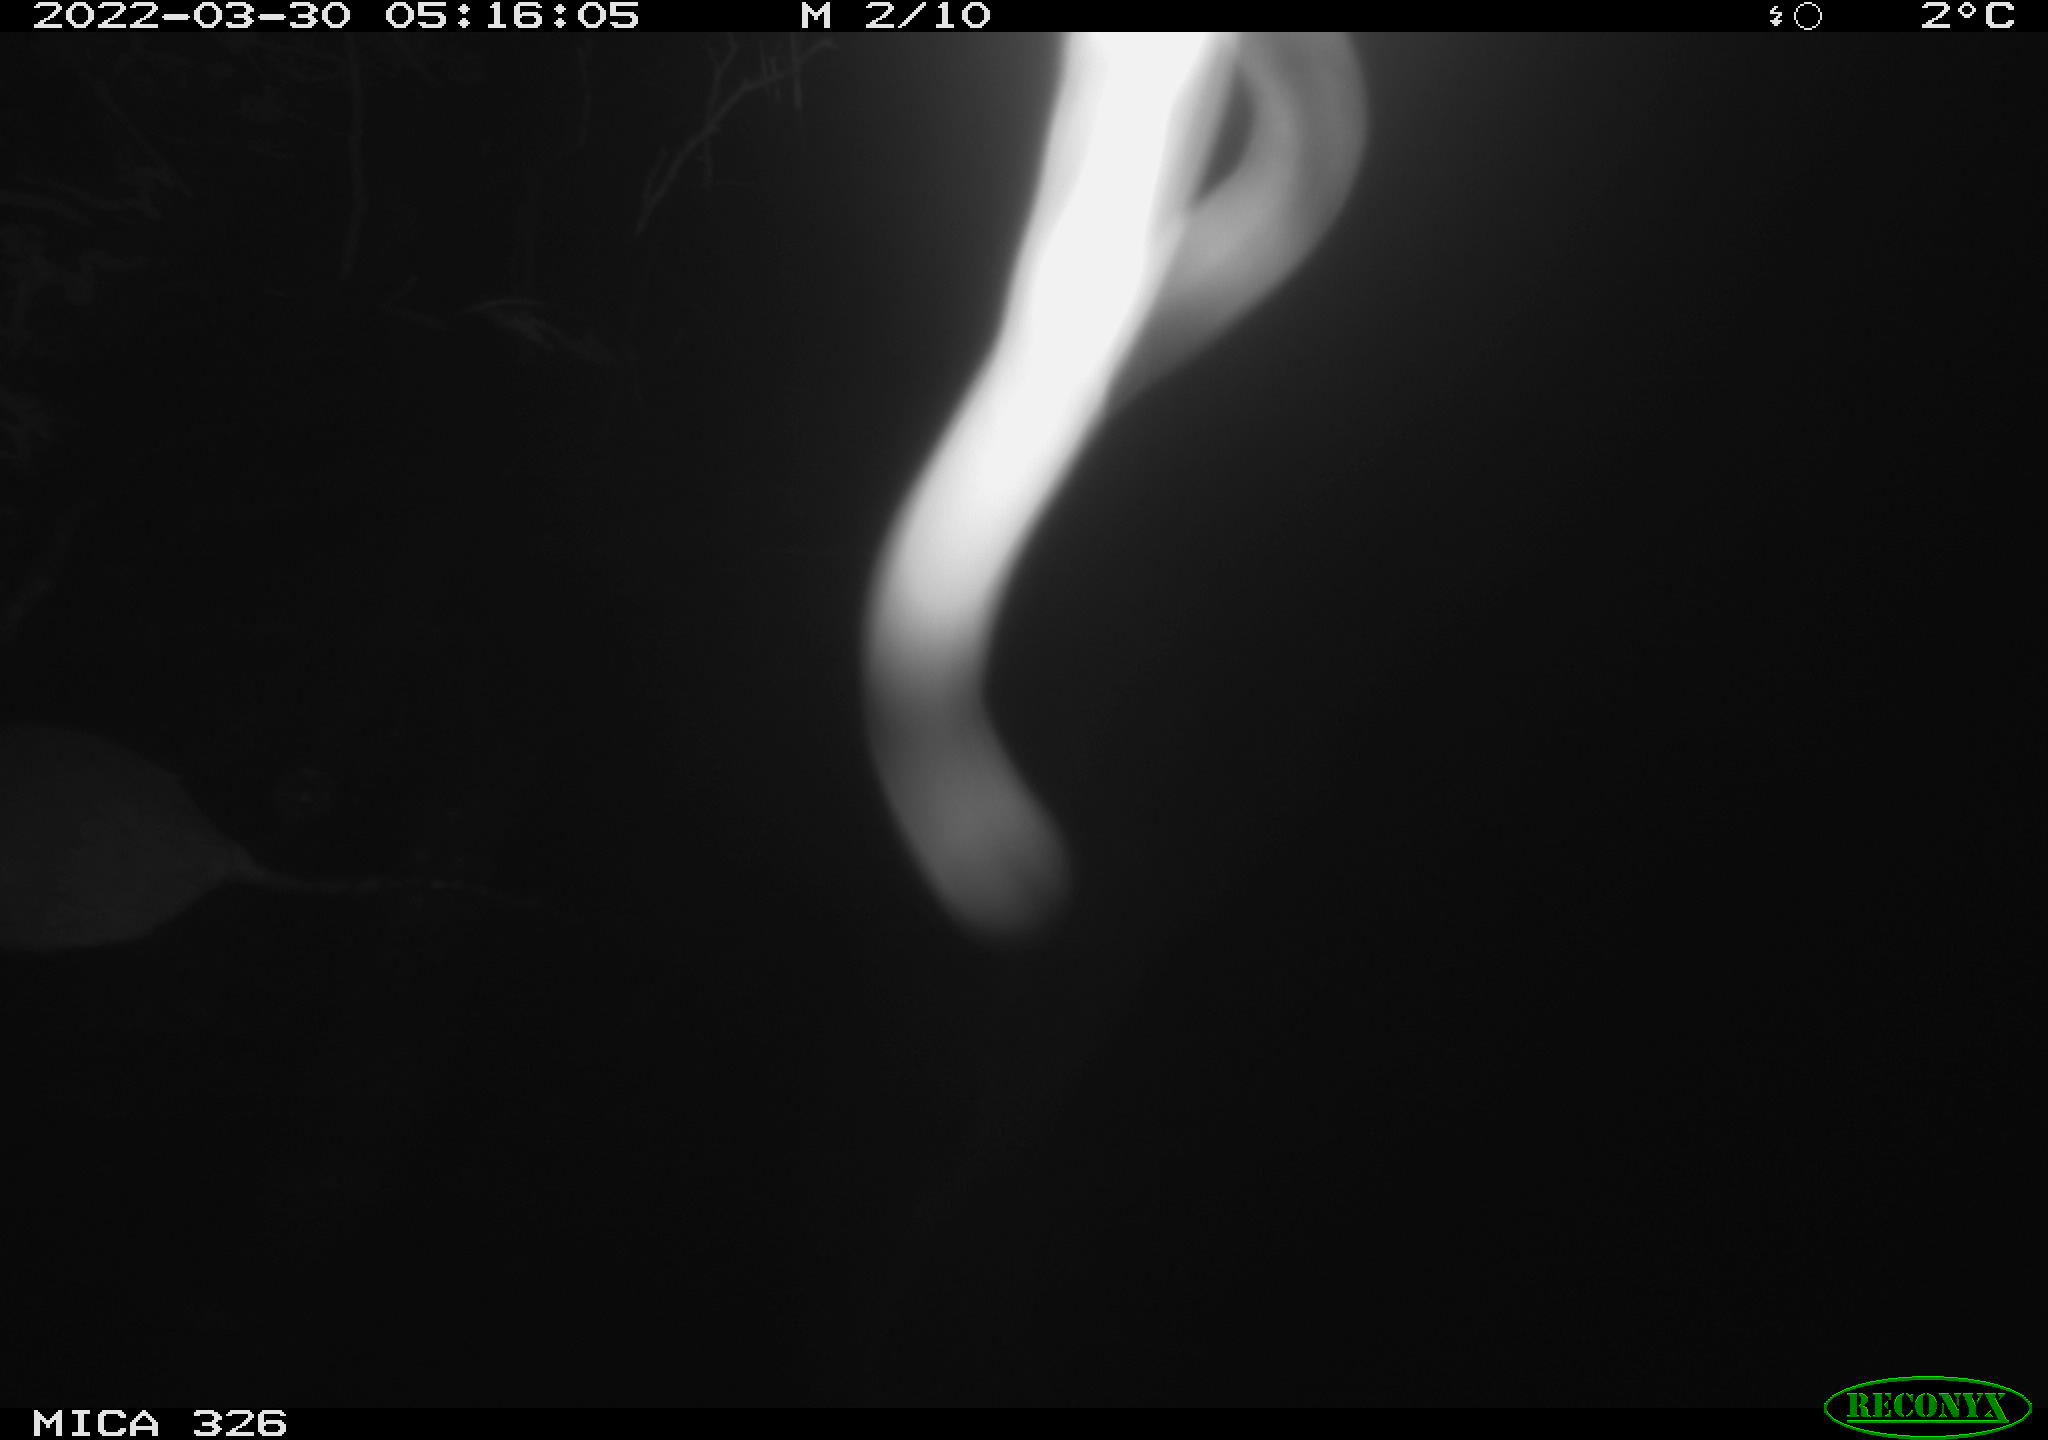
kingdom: Animalia
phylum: Chordata
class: Mammalia
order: Rodentia
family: Muridae
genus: Rattus
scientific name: Rattus norvegicus
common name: Brown rat
